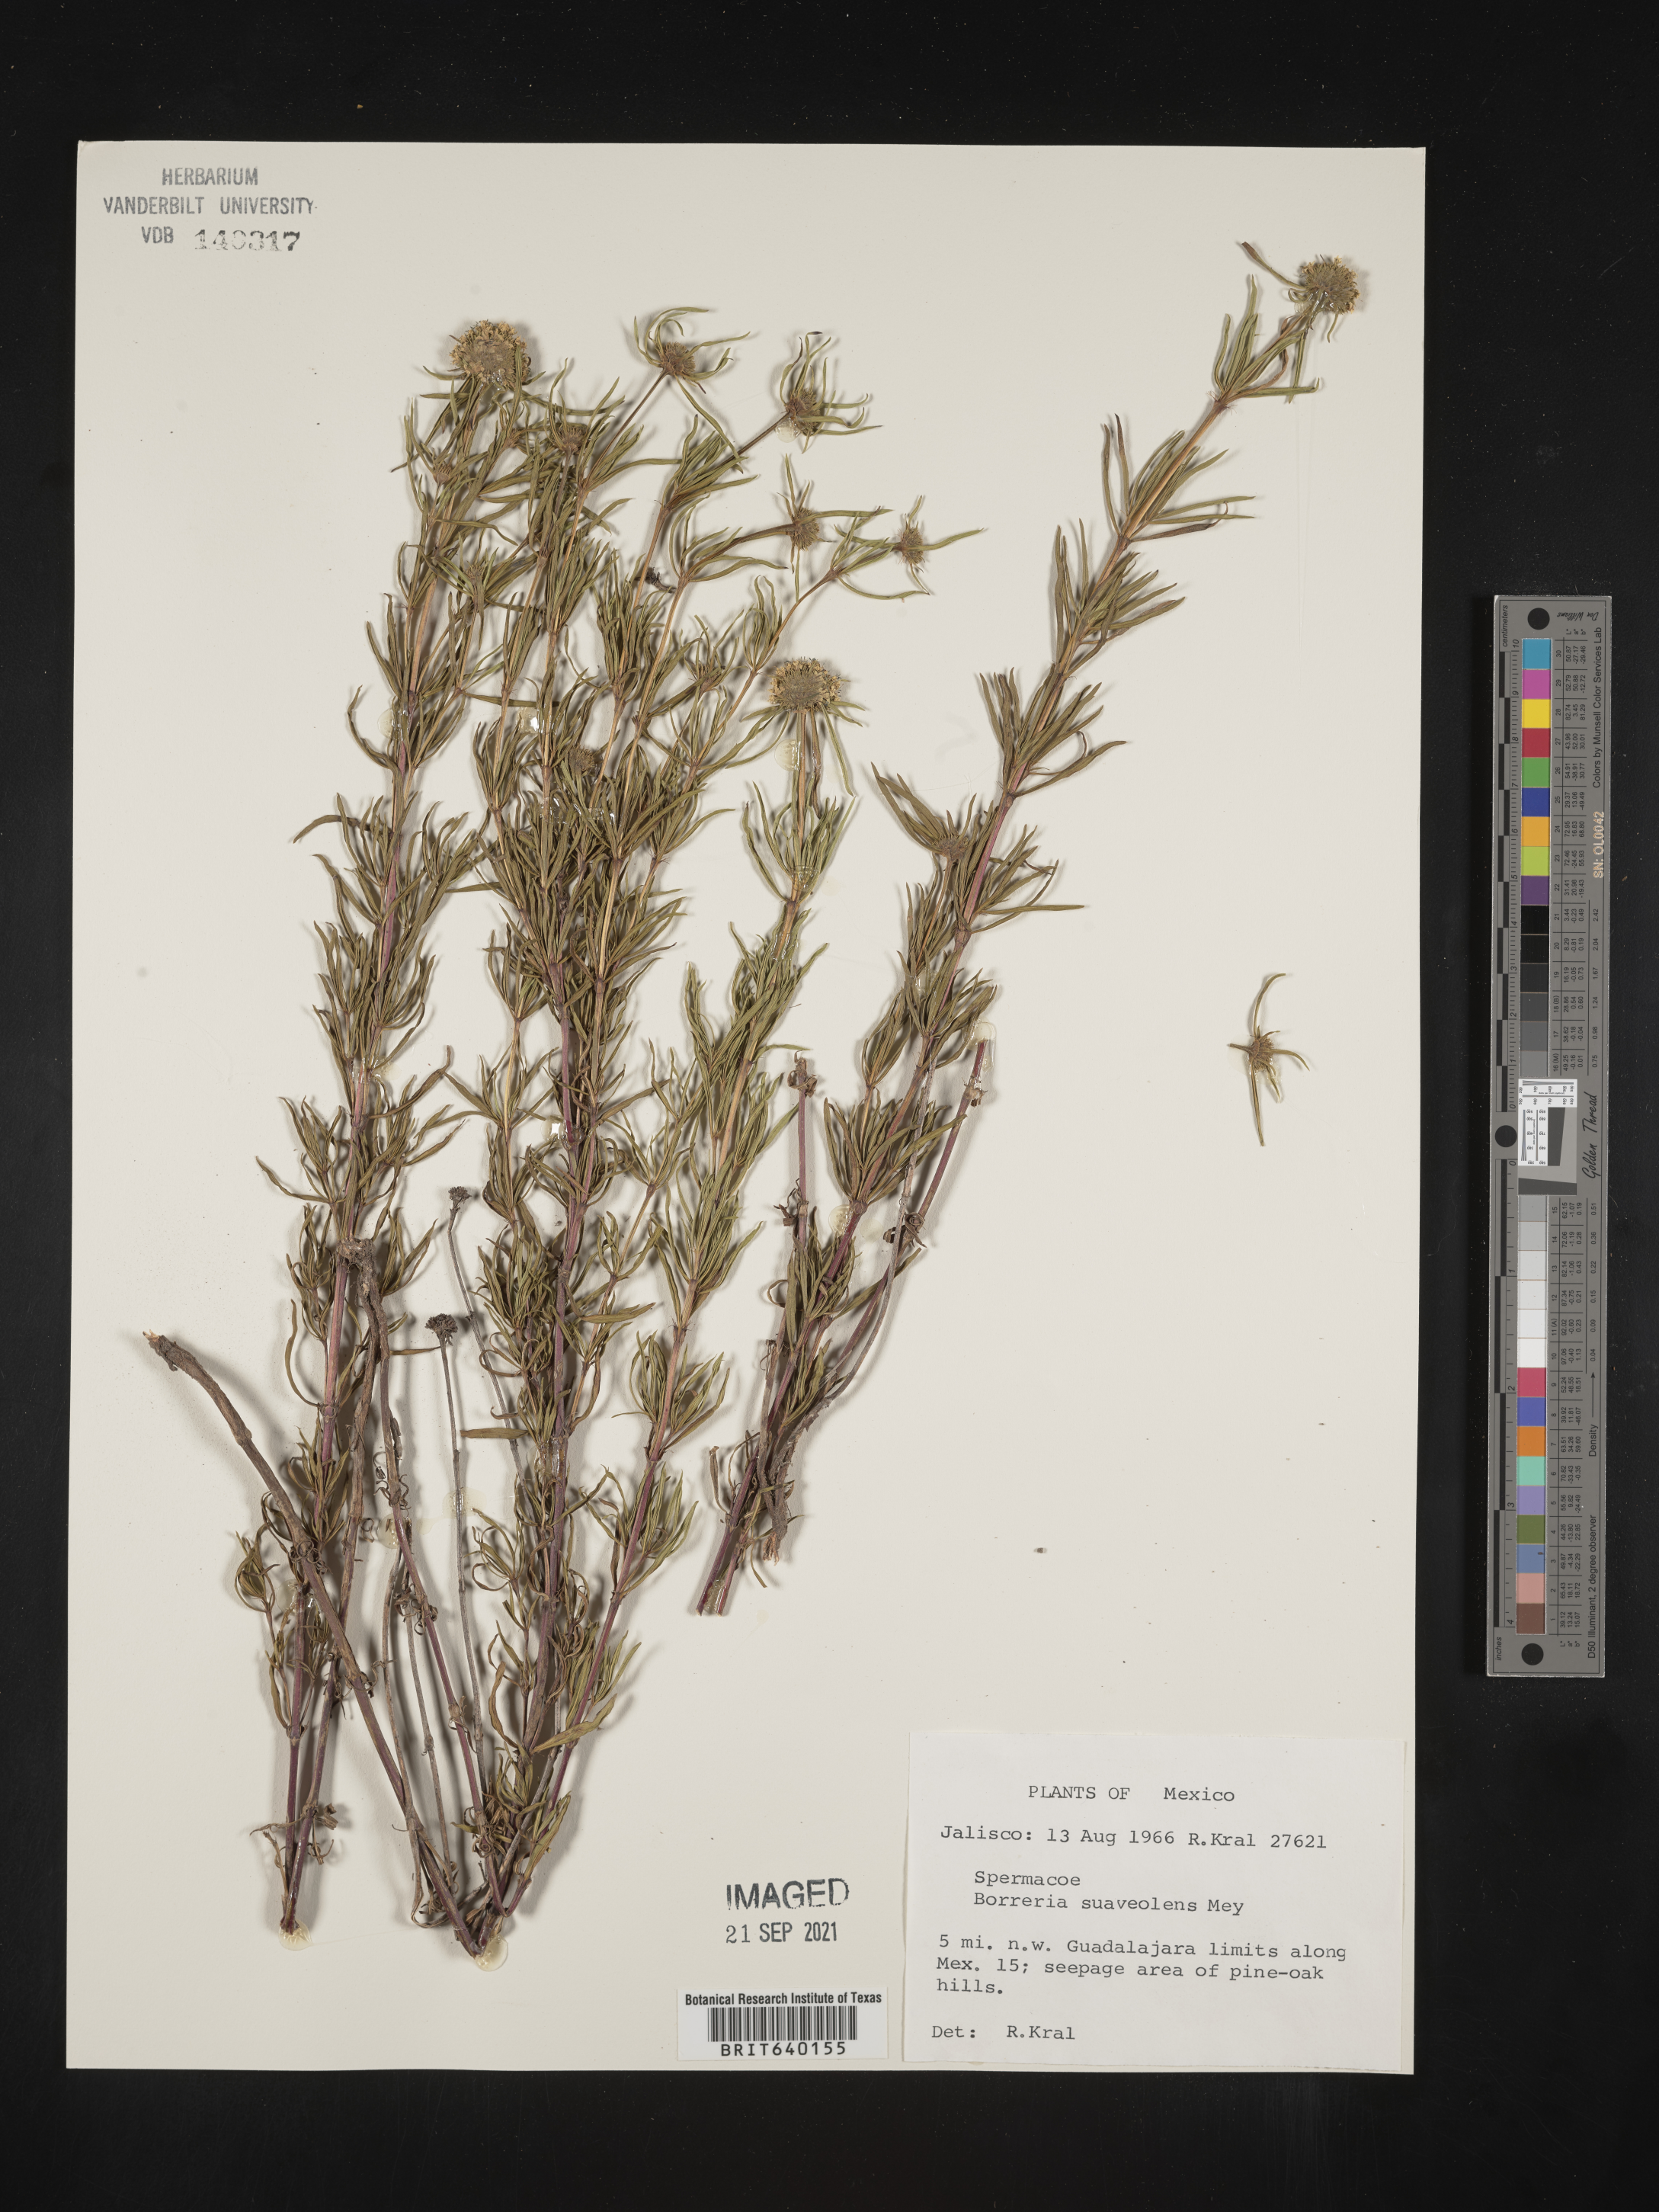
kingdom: Plantae
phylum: Tracheophyta
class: Magnoliopsida
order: Gentianales
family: Rubiaceae
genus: Spermacoce
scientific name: Spermacoce
